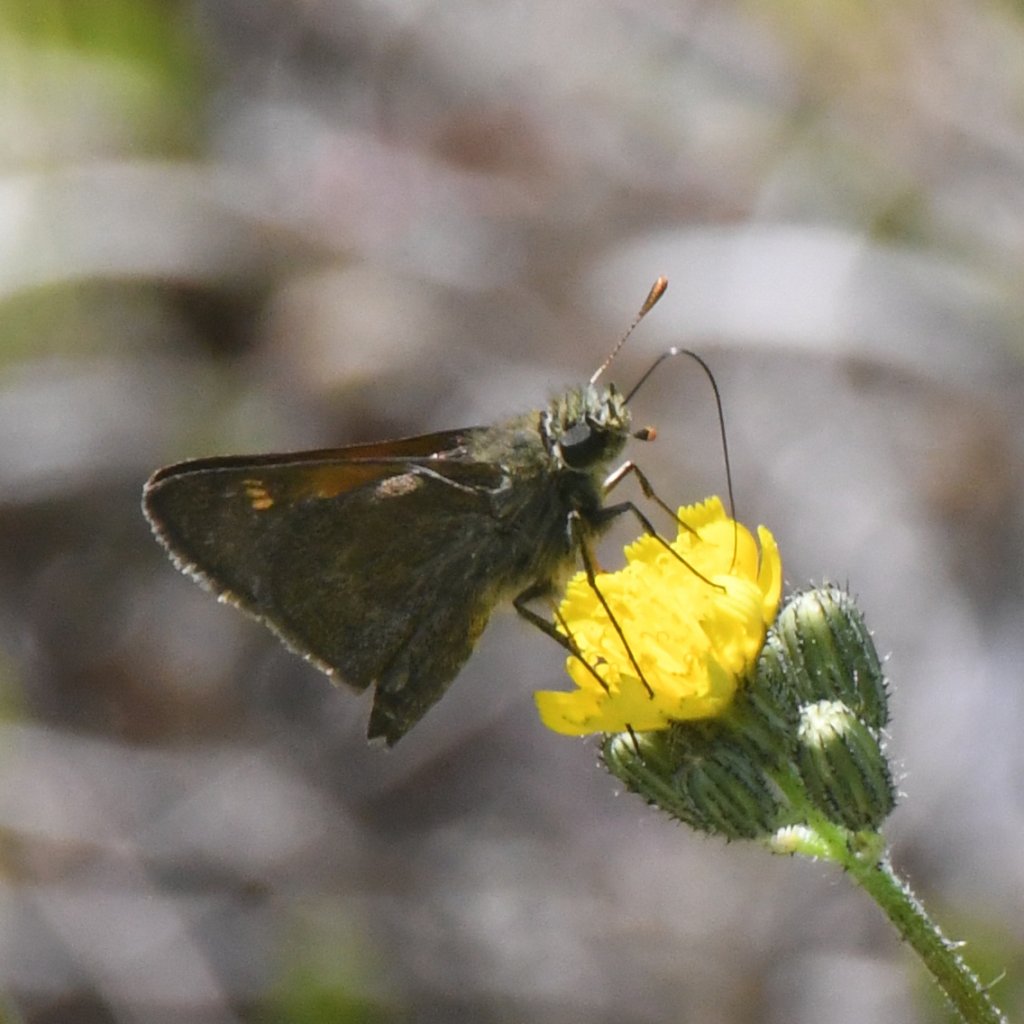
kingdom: Animalia
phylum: Arthropoda
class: Insecta
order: Lepidoptera
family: Hesperiidae
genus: Polites
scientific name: Polites themistocles
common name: Tawny-edged Skipper
